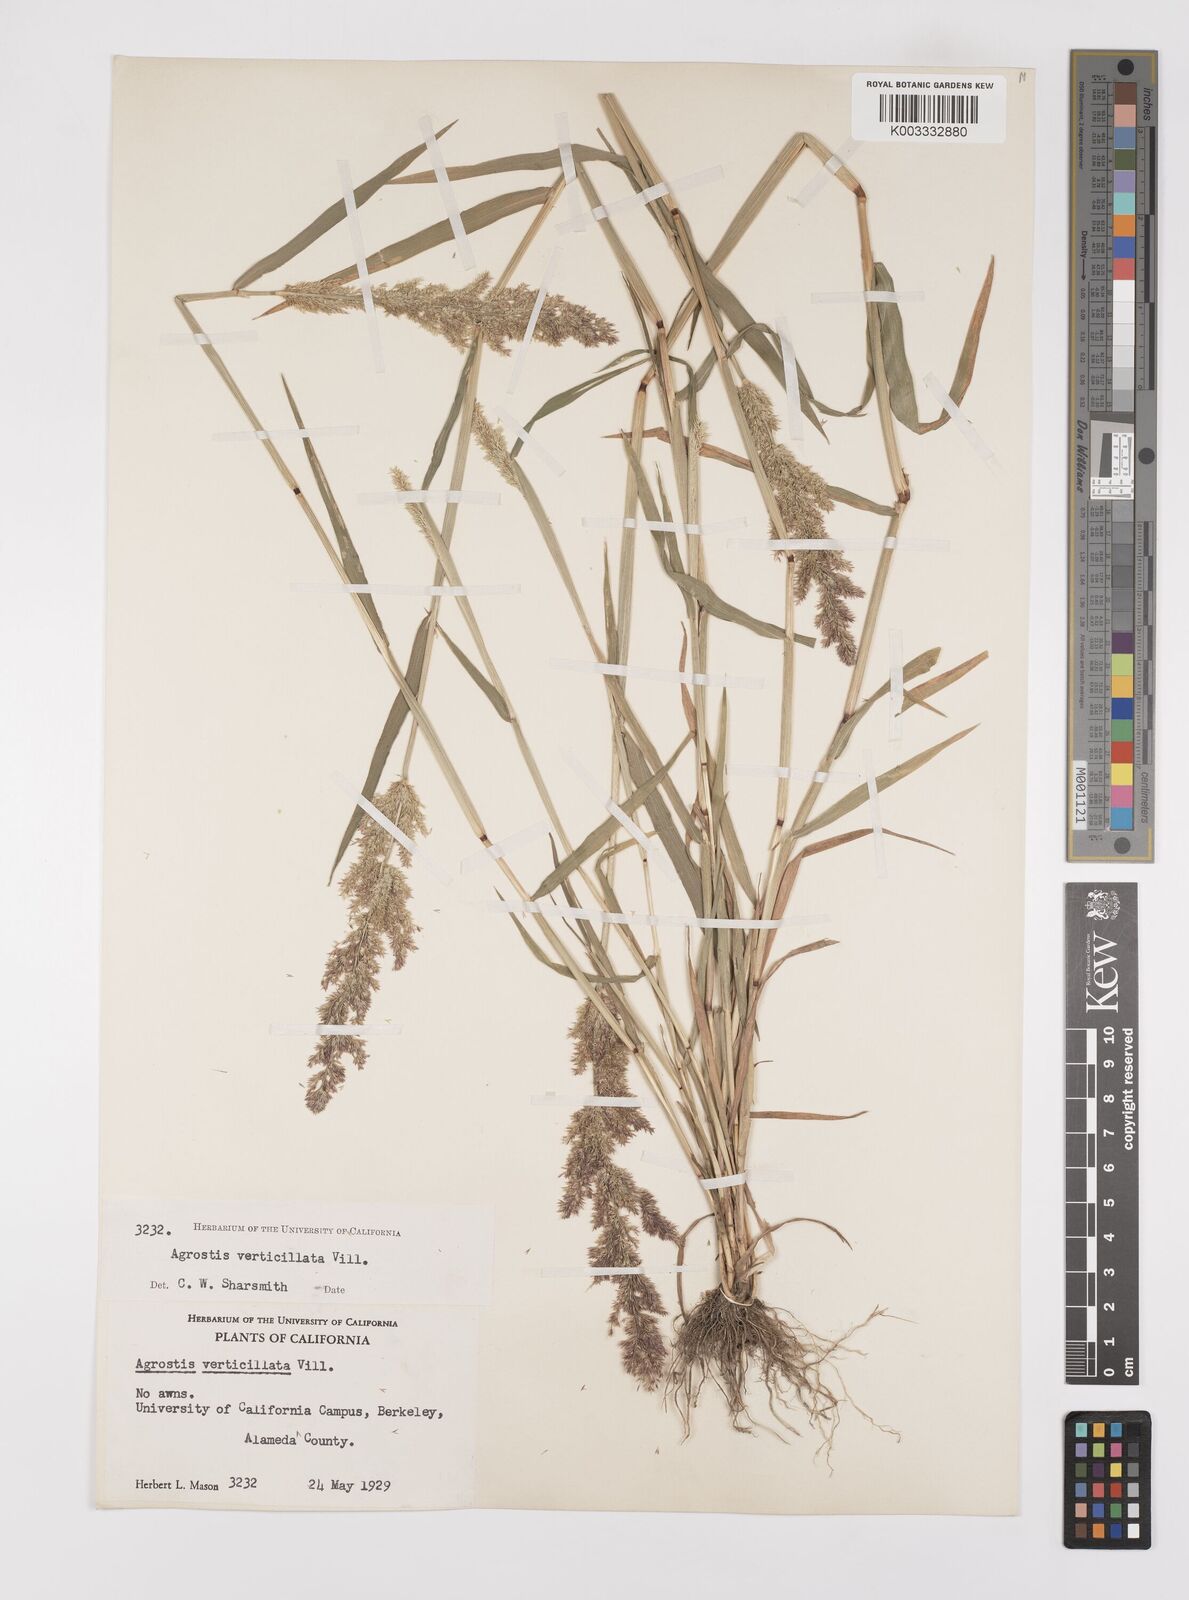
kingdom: Plantae
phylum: Tracheophyta
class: Liliopsida
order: Poales
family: Poaceae
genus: Polypogon
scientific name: Polypogon viridis
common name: Water bent
